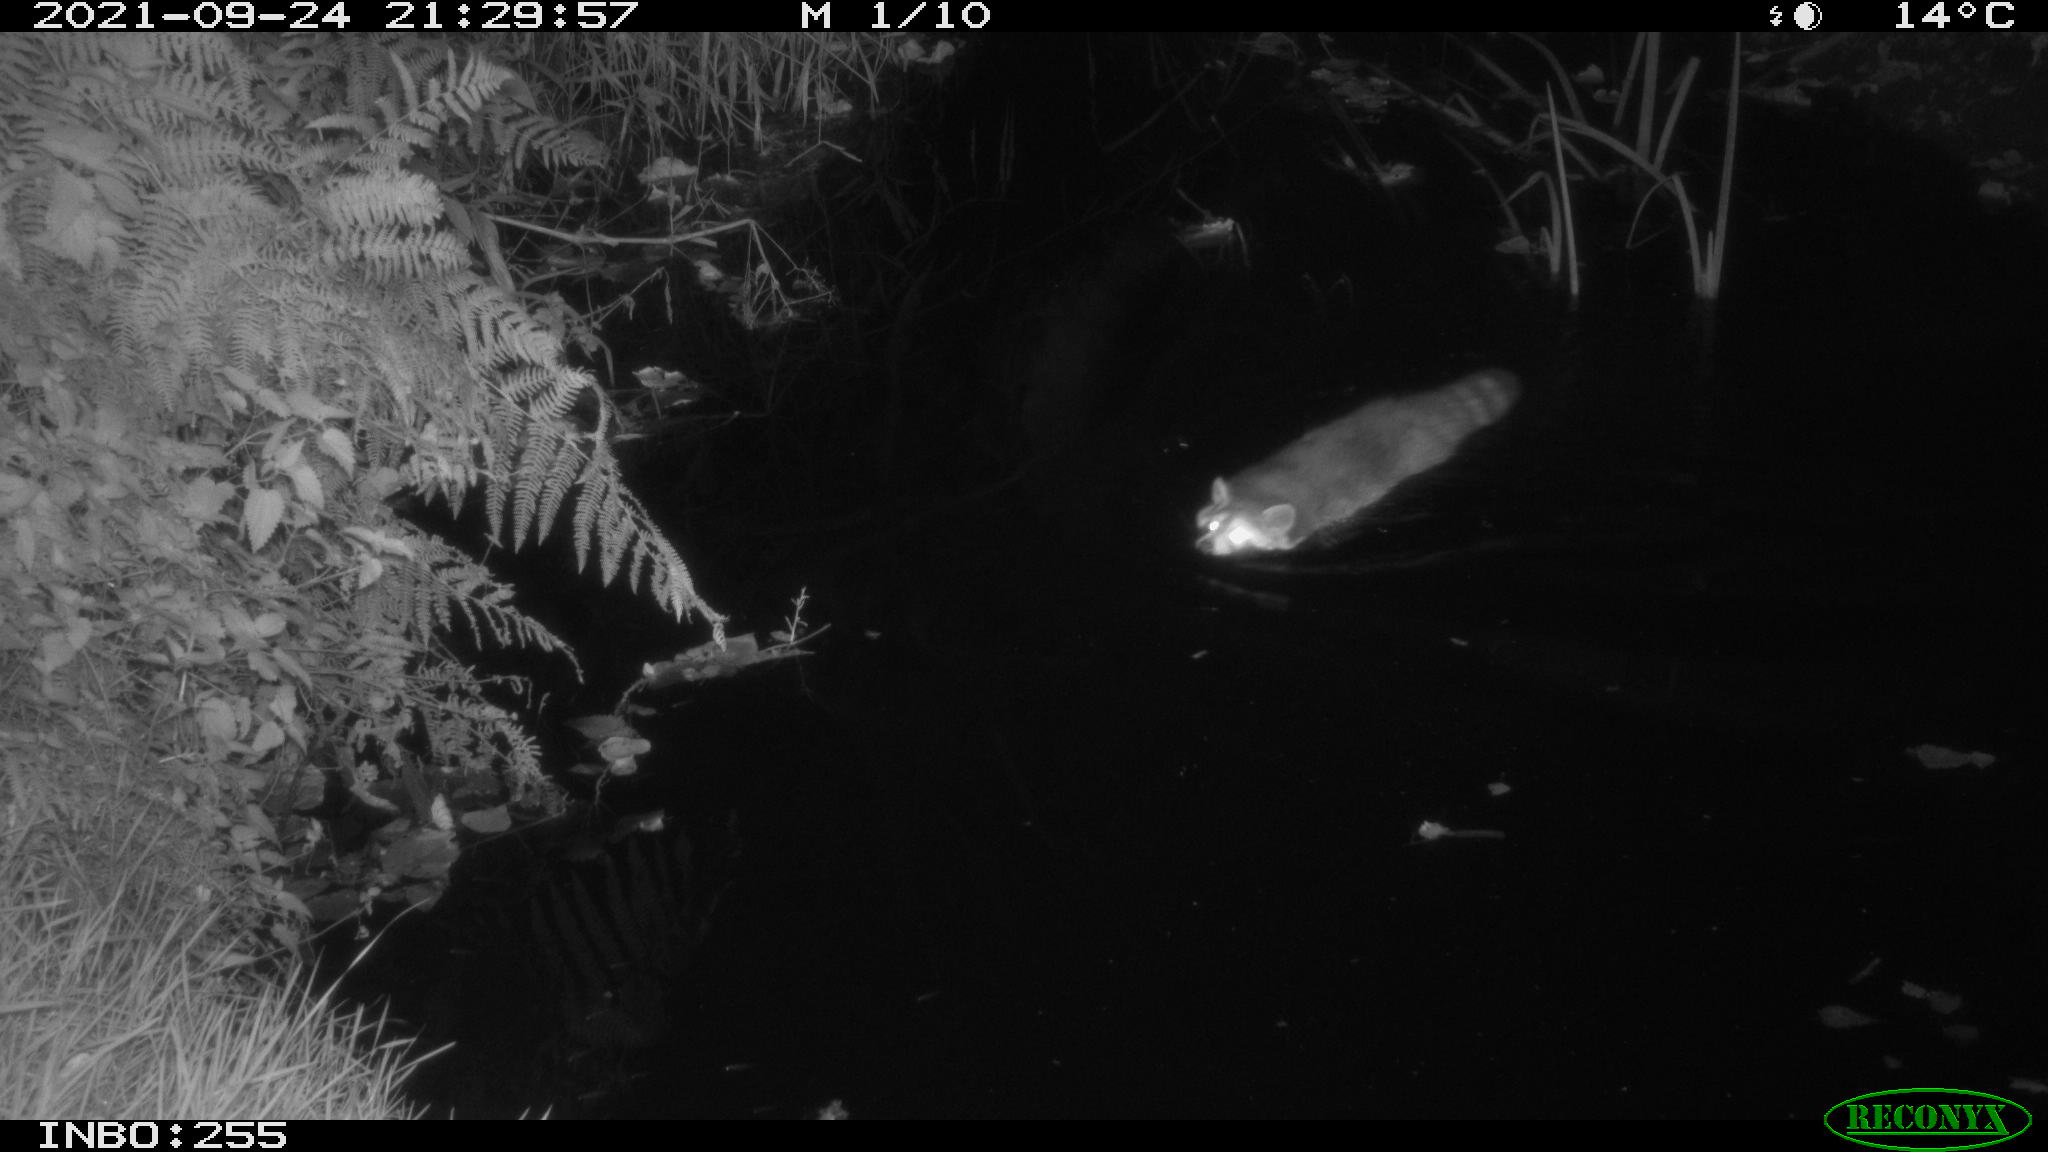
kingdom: Animalia
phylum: Chordata
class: Aves
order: Gruiformes
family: Rallidae
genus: Gallinula
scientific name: Gallinula chloropus
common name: Common moorhen
